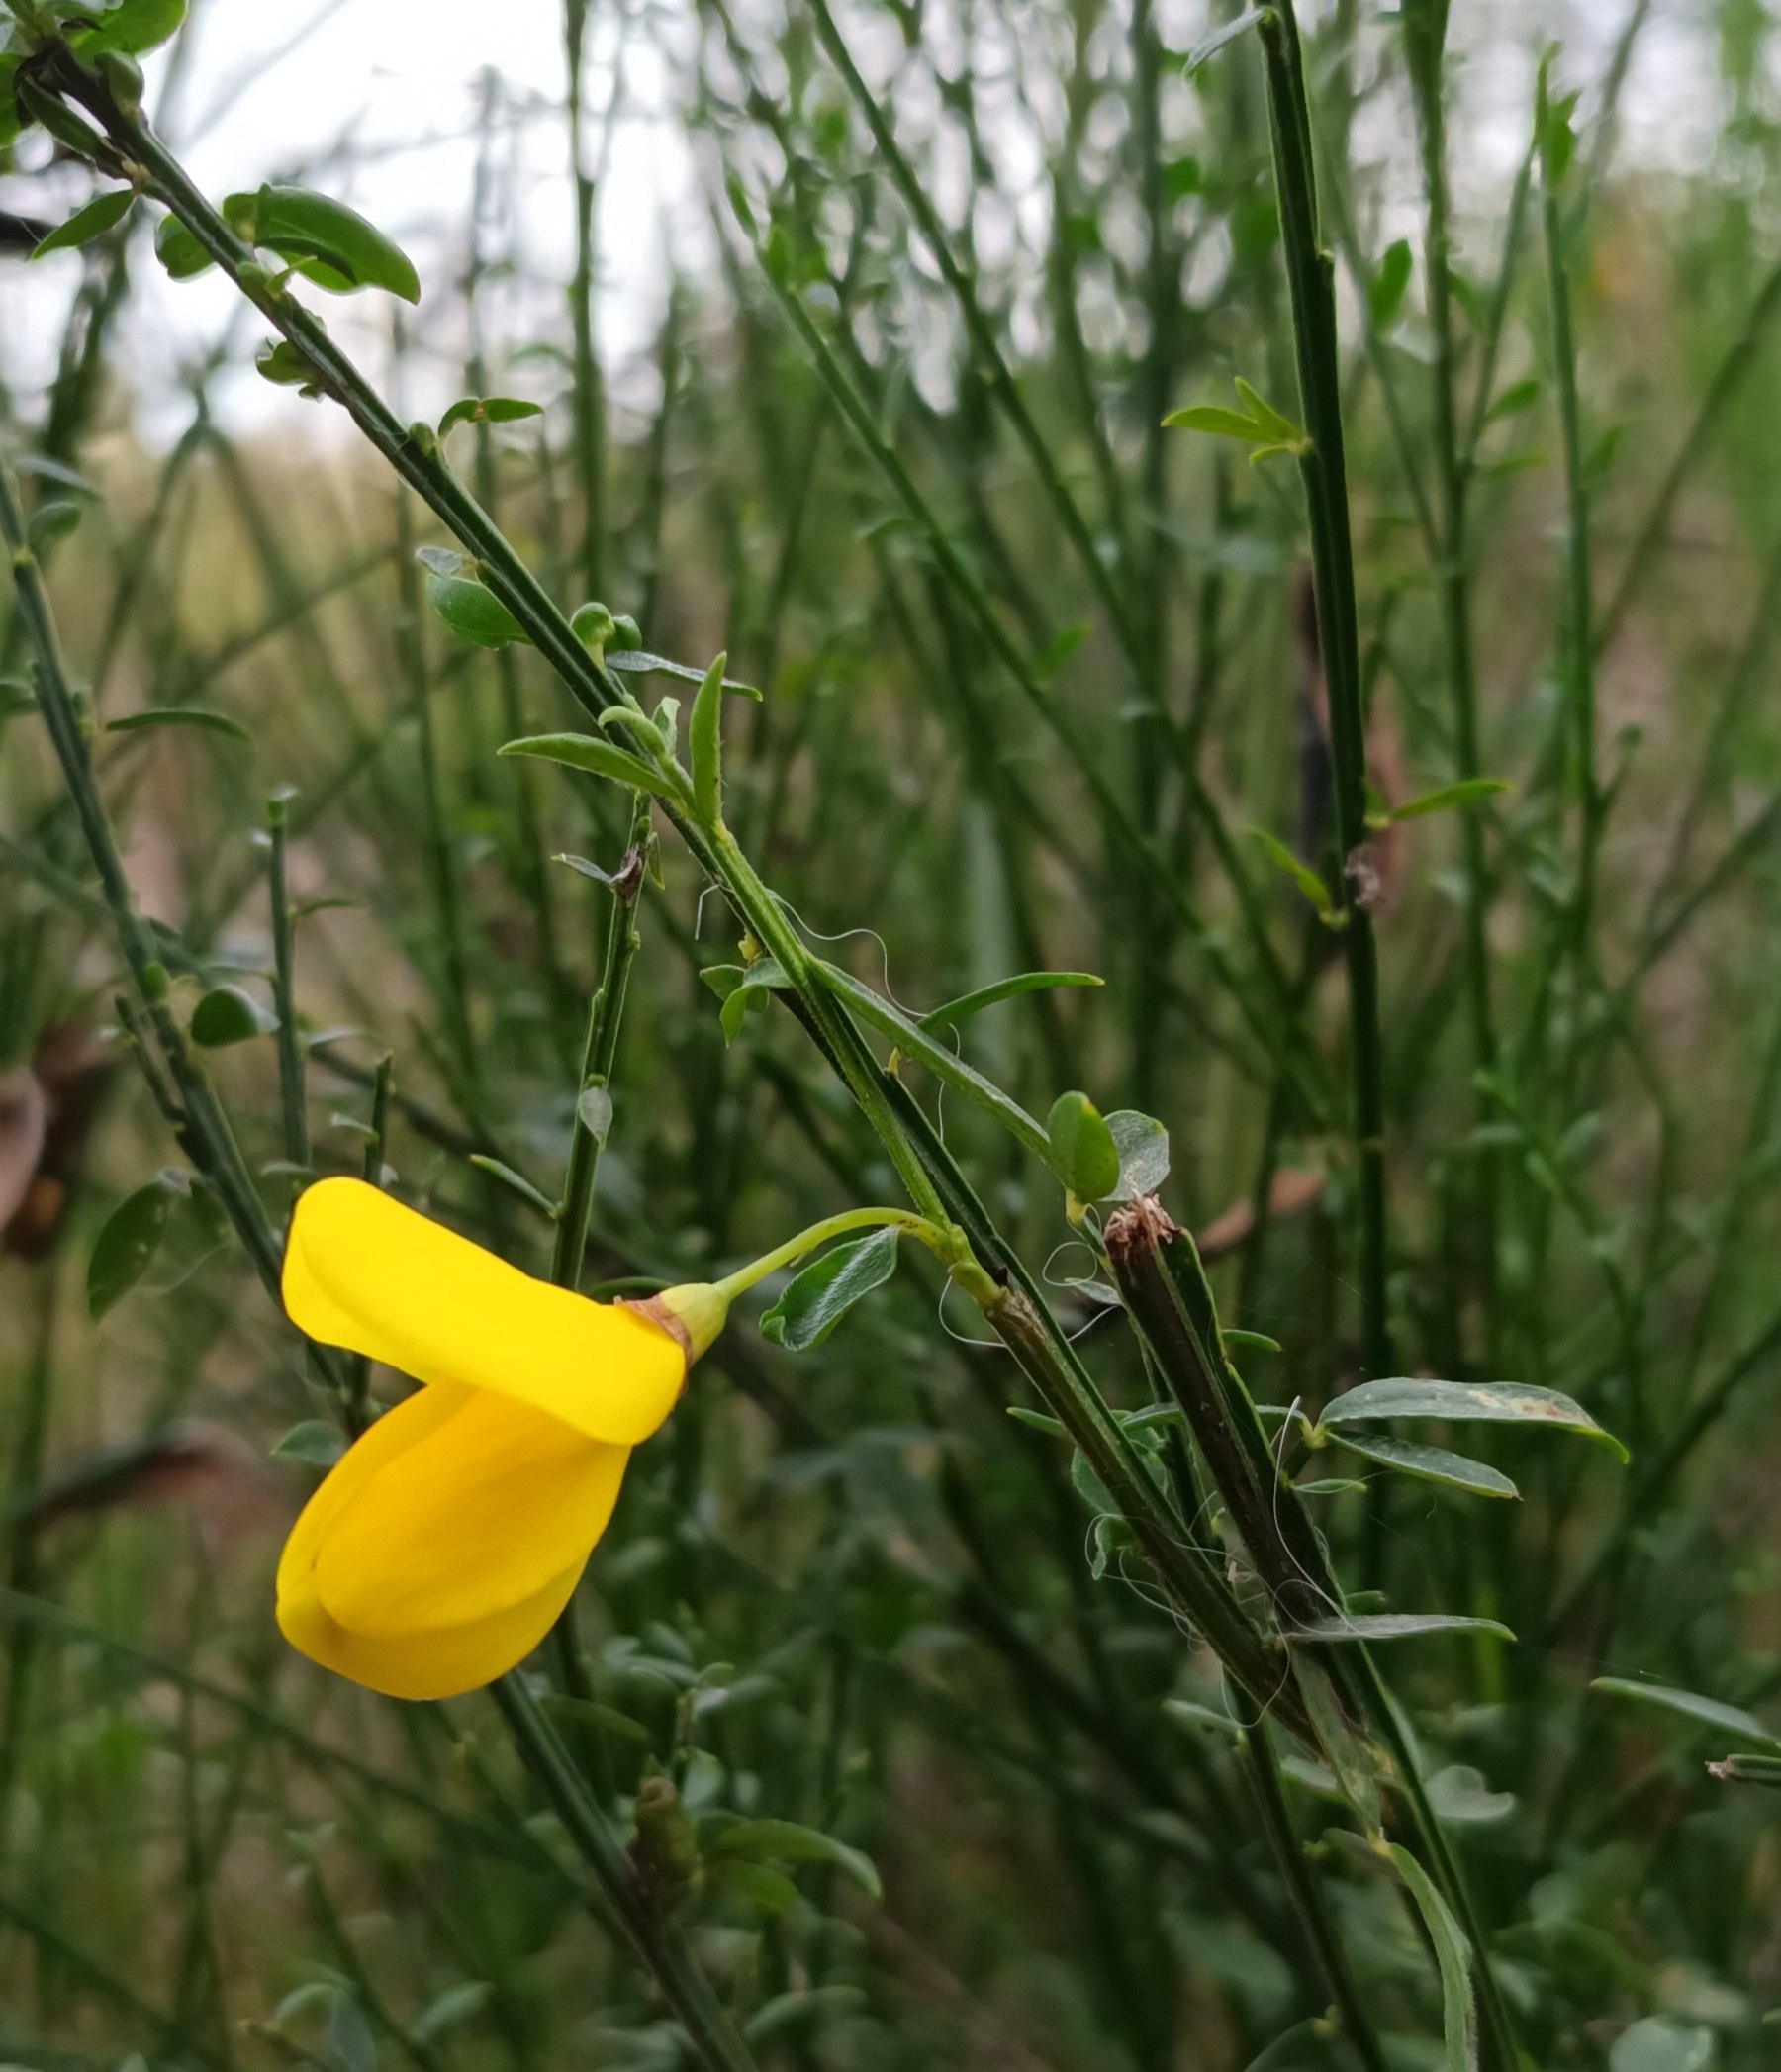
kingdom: Plantae
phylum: Tracheophyta
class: Magnoliopsida
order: Fabales
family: Fabaceae
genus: Cytisus
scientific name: Cytisus scoparius
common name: Almindelig gyvel
